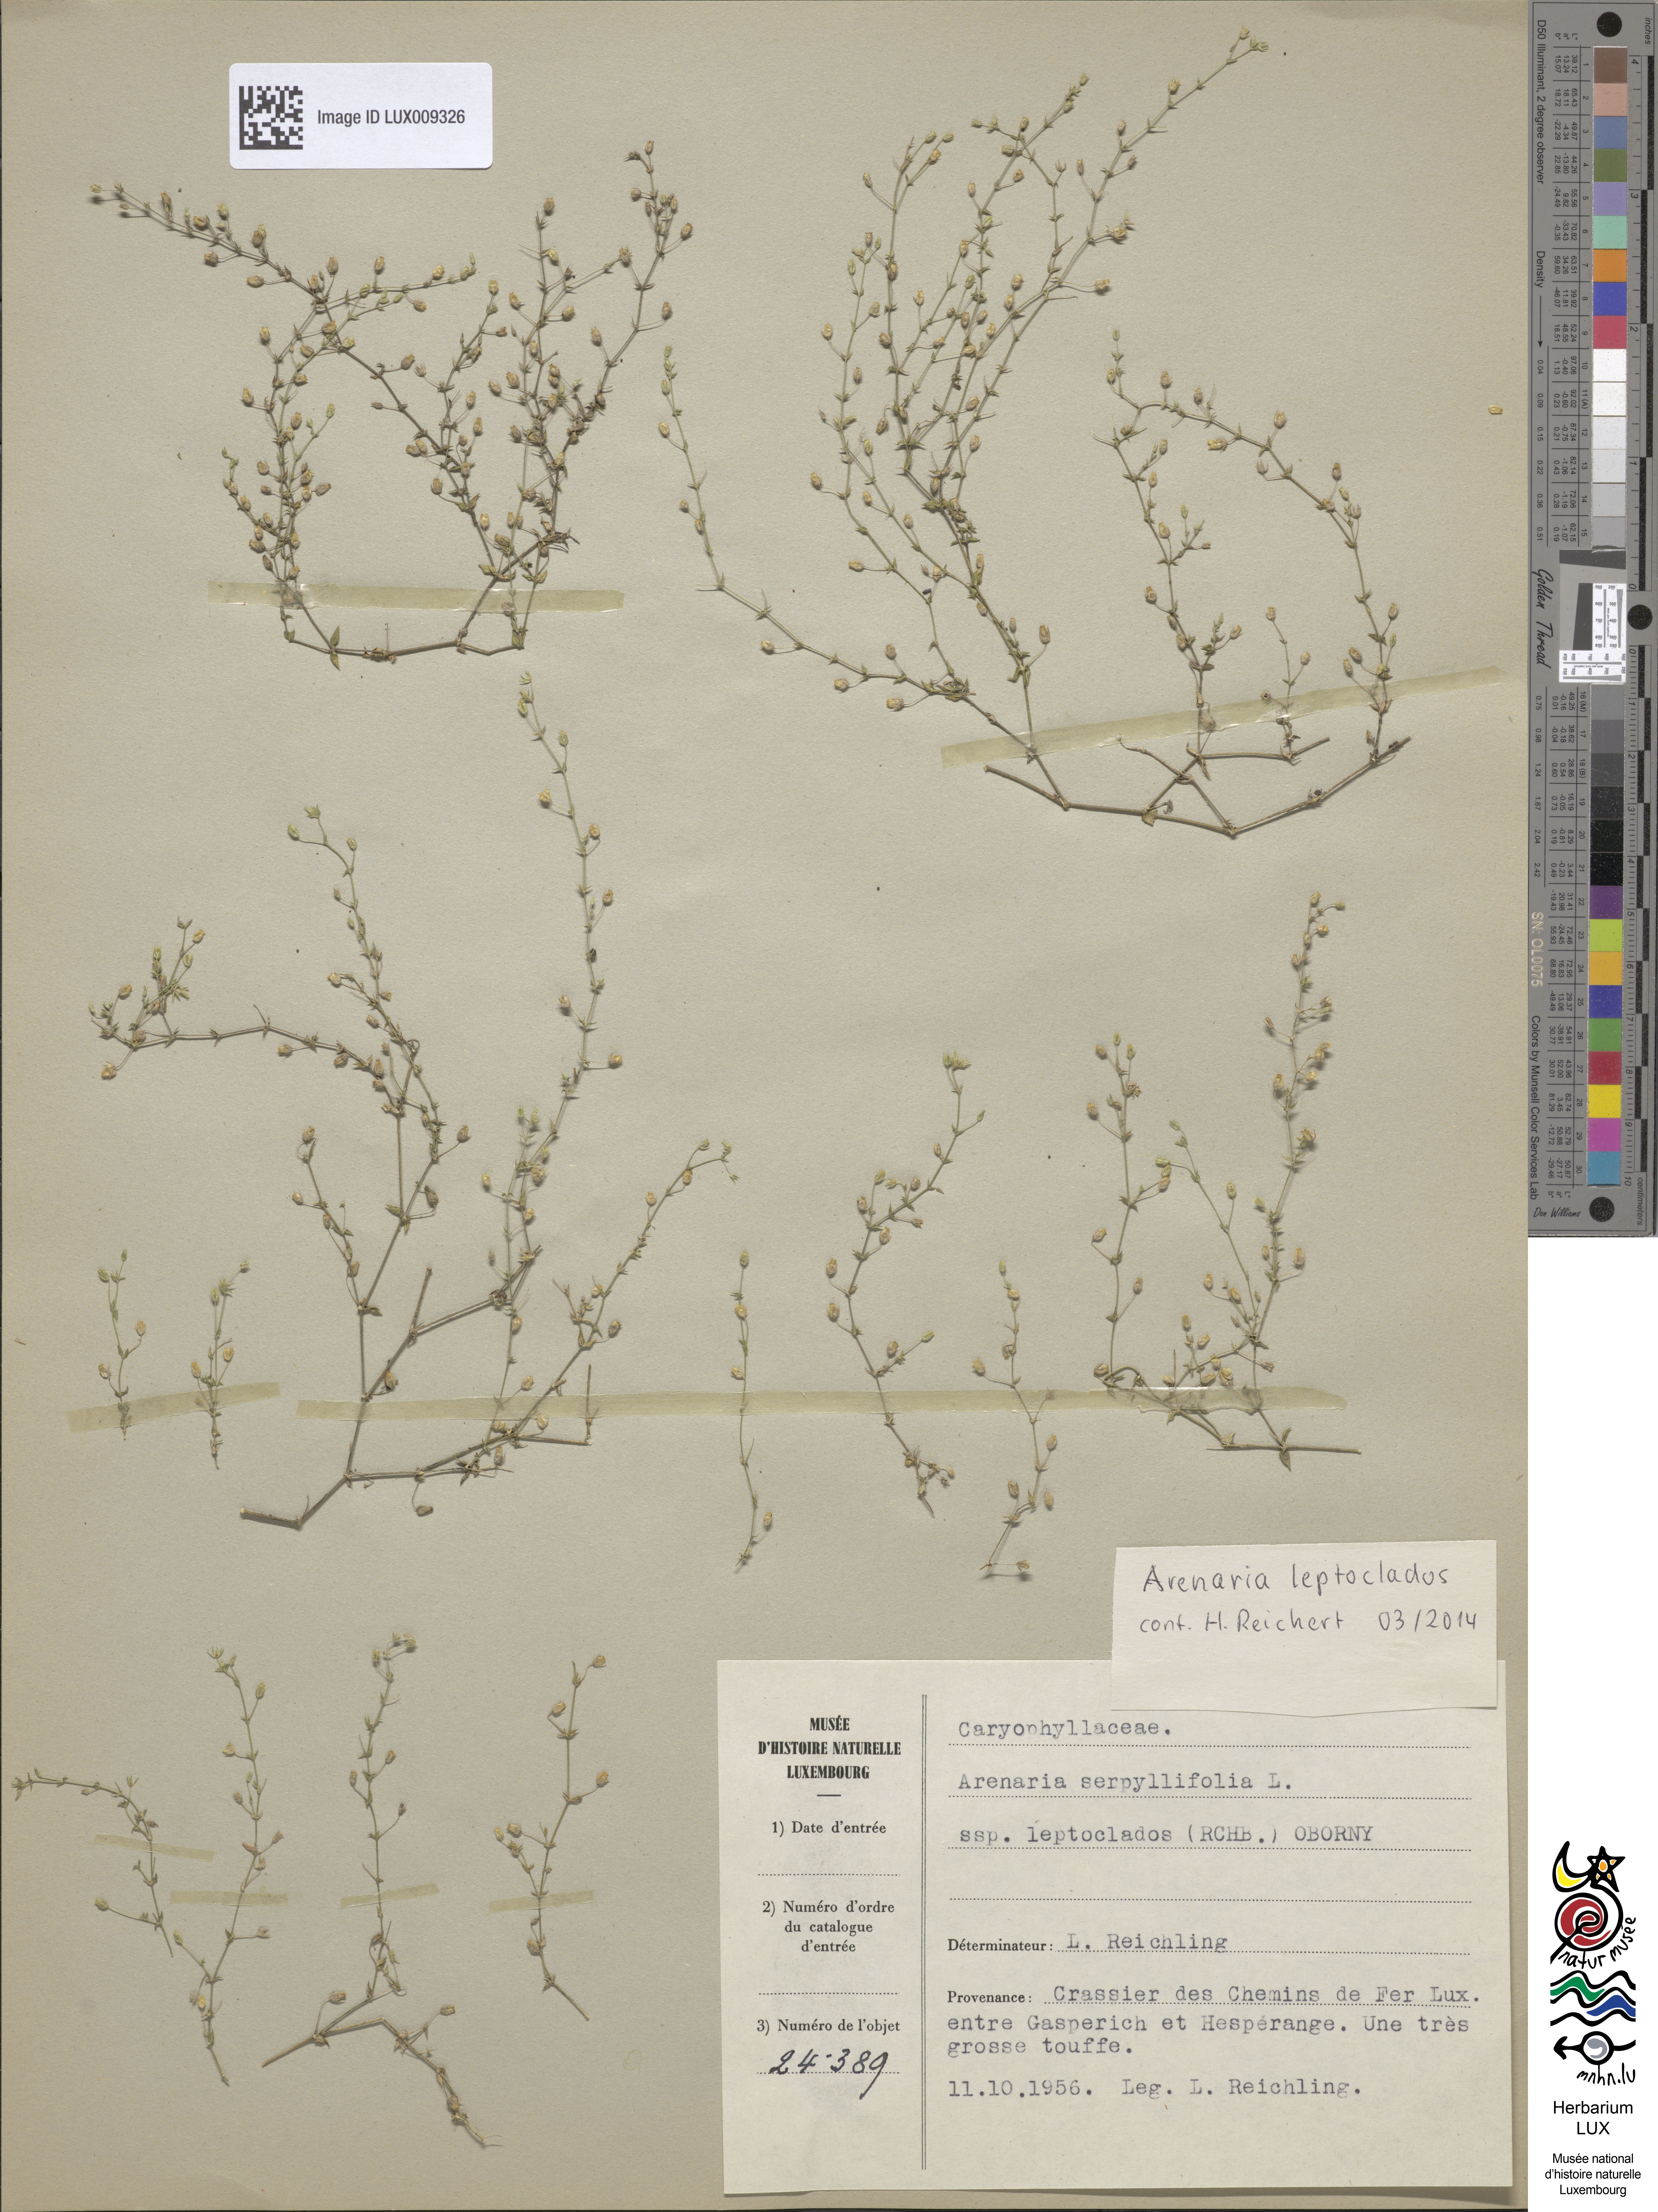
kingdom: Plantae
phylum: Tracheophyta
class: Magnoliopsida
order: Caryophyllales
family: Caryophyllaceae
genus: Arenaria
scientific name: Arenaria leptoclados
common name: Thyme-leaved sandwort
